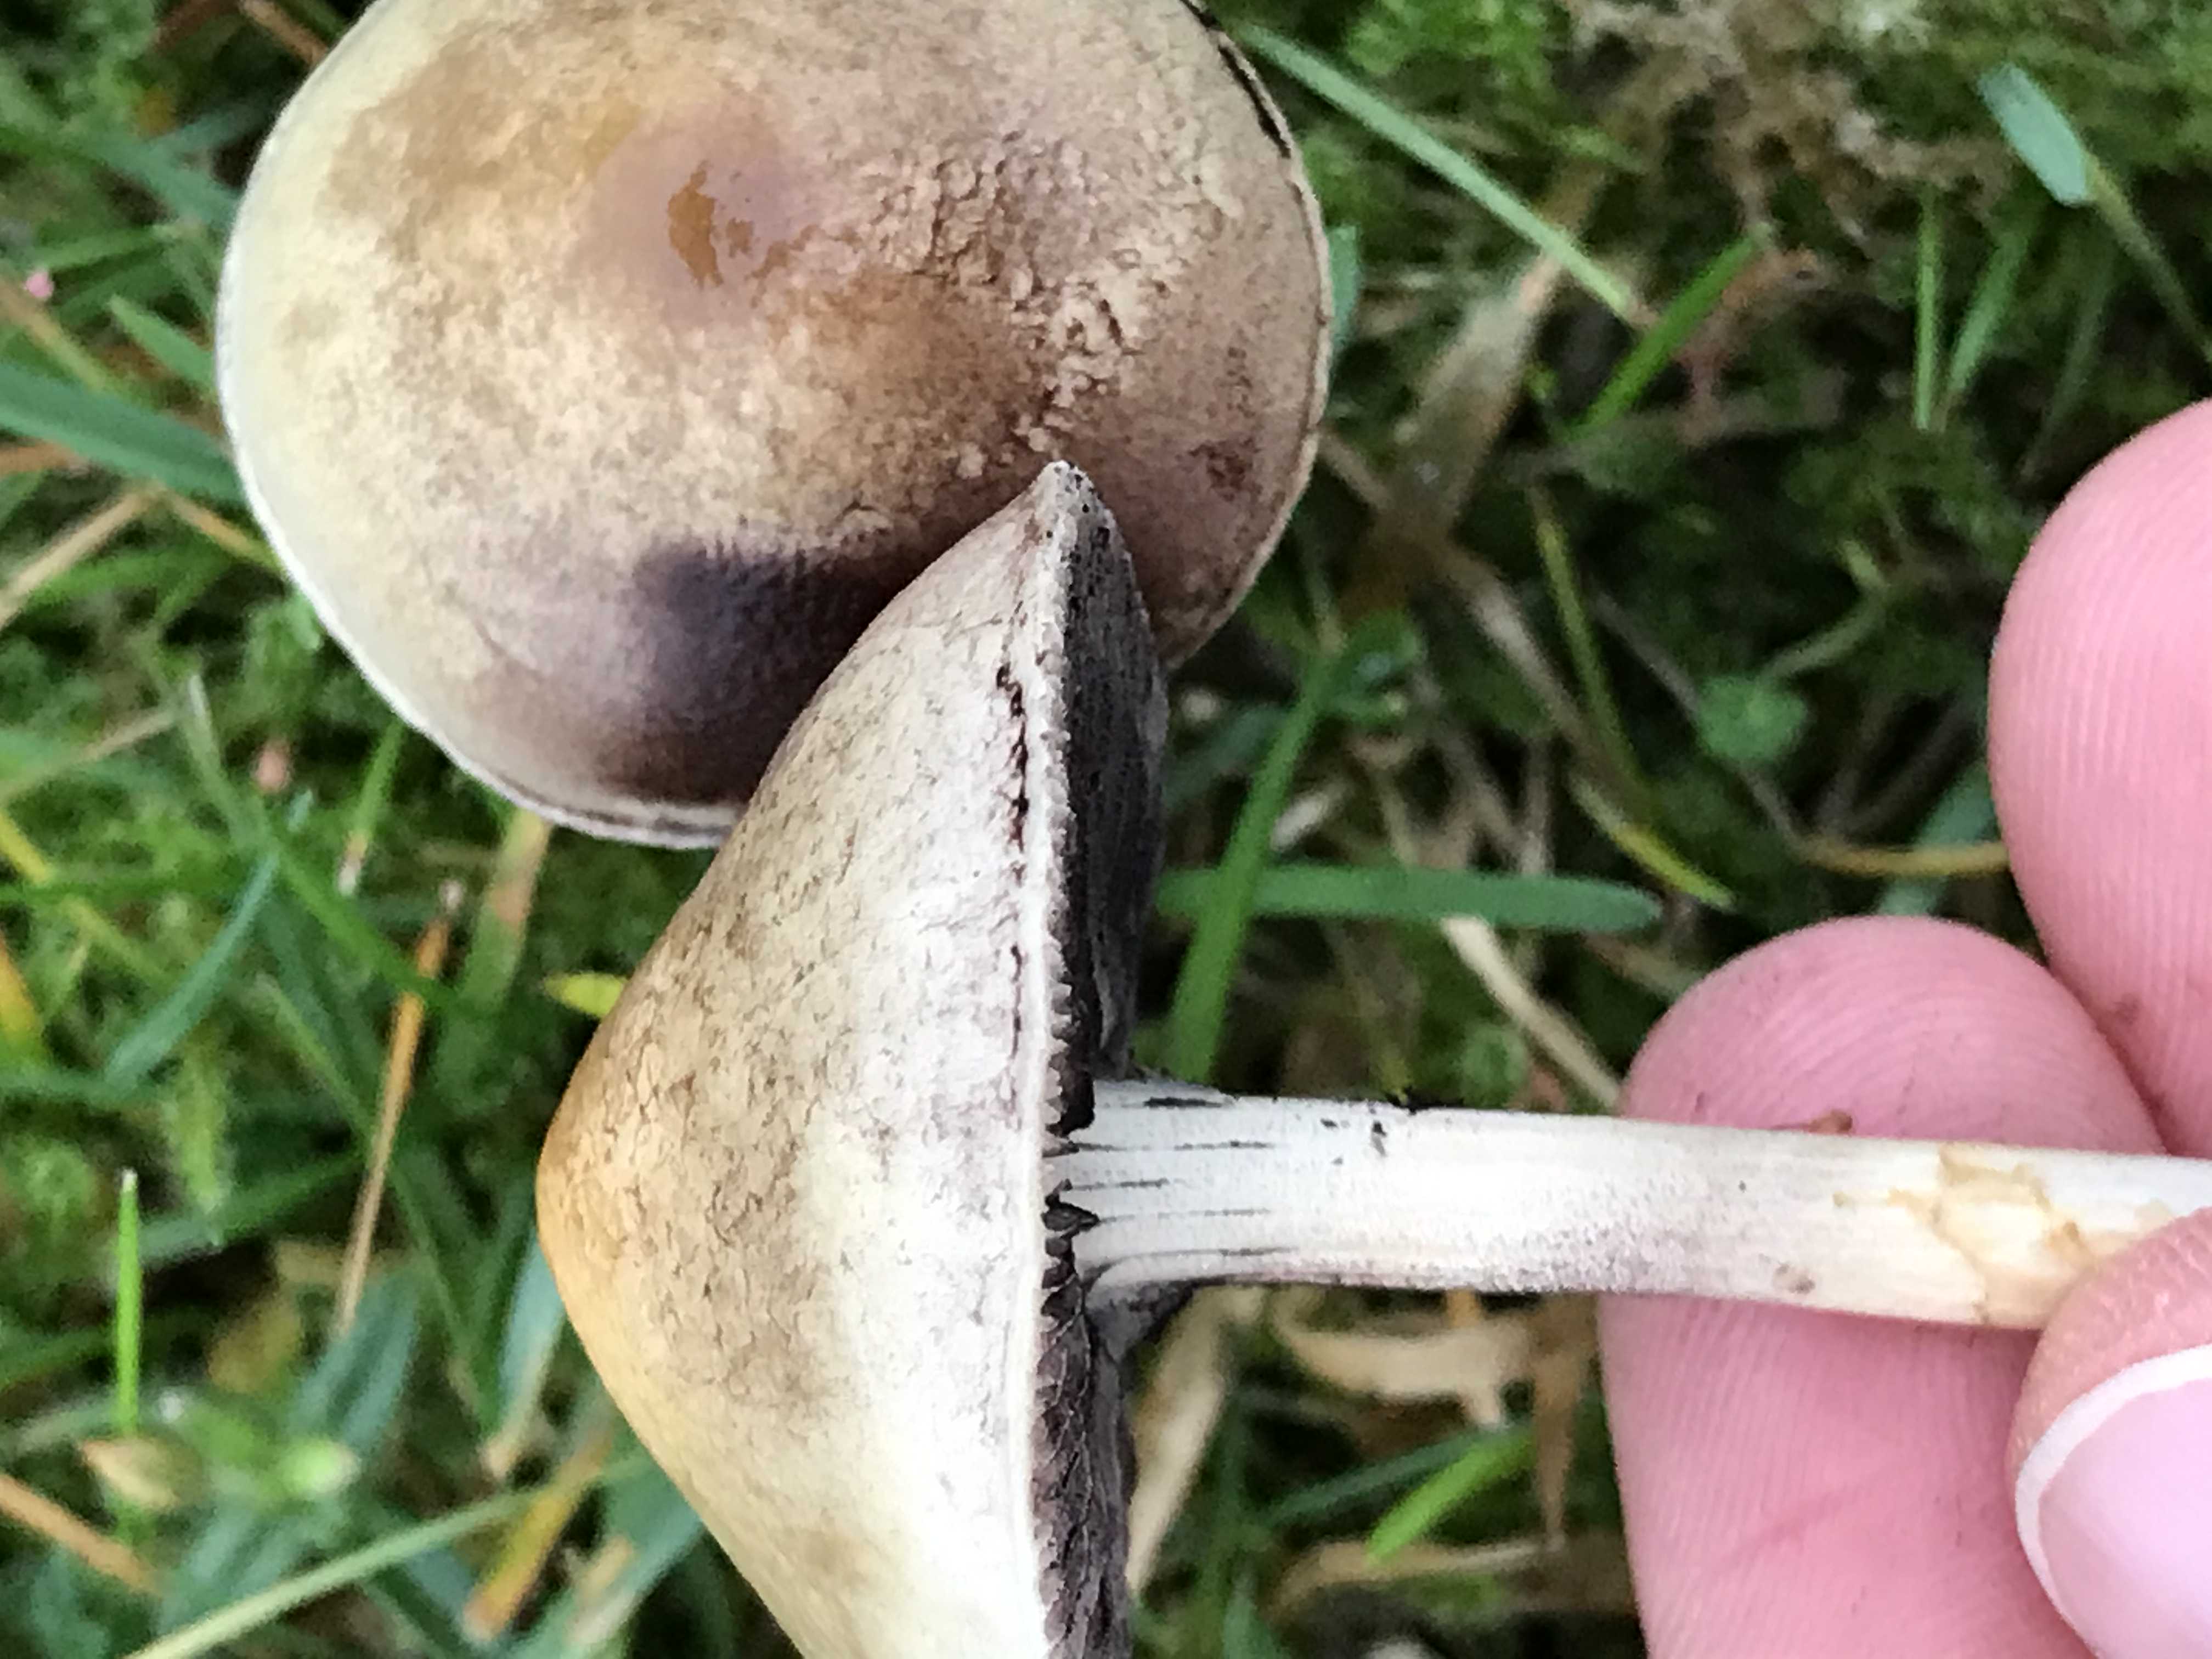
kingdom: Fungi
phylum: Basidiomycota
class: Agaricomycetes
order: Agaricales
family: Bolbitiaceae
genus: Panaeolus
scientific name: Panaeolus semiovatus
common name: ring-glanshat
